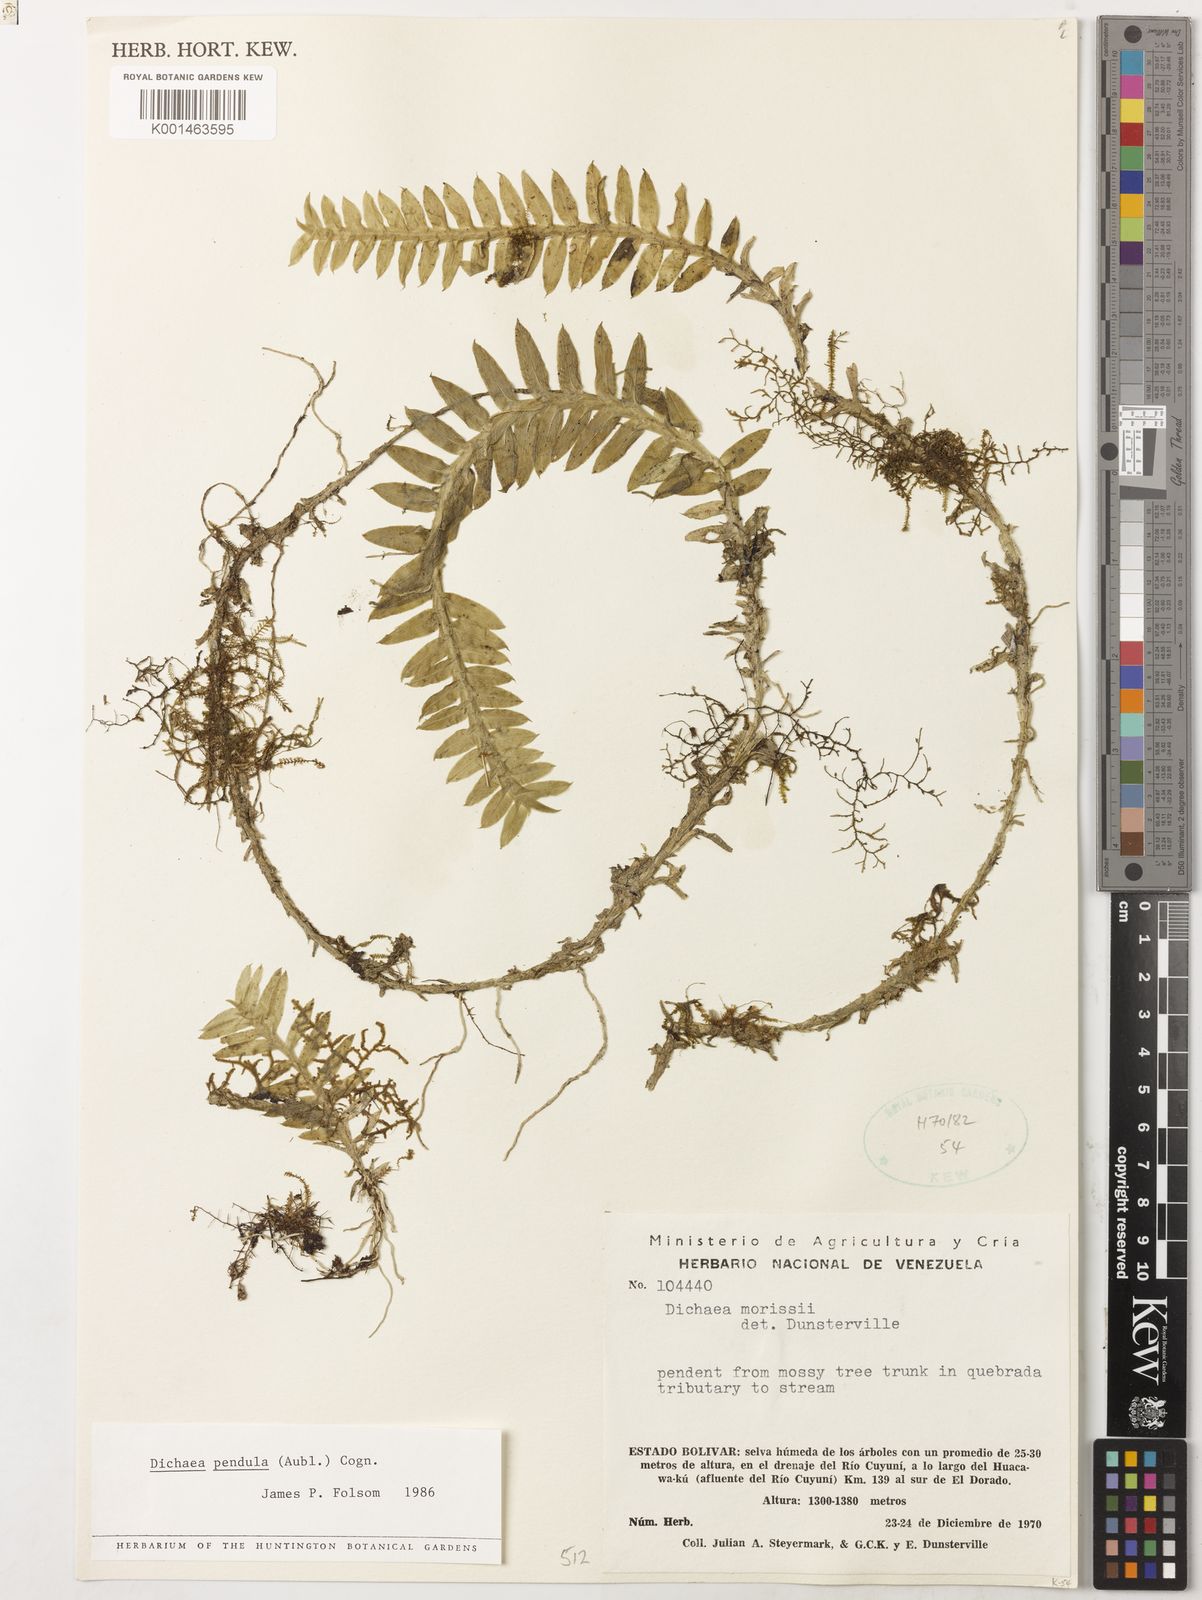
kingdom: Plantae
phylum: Tracheophyta
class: Liliopsida
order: Asparagales
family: Orchidaceae
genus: Dichaea
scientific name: Dichaea pendula
